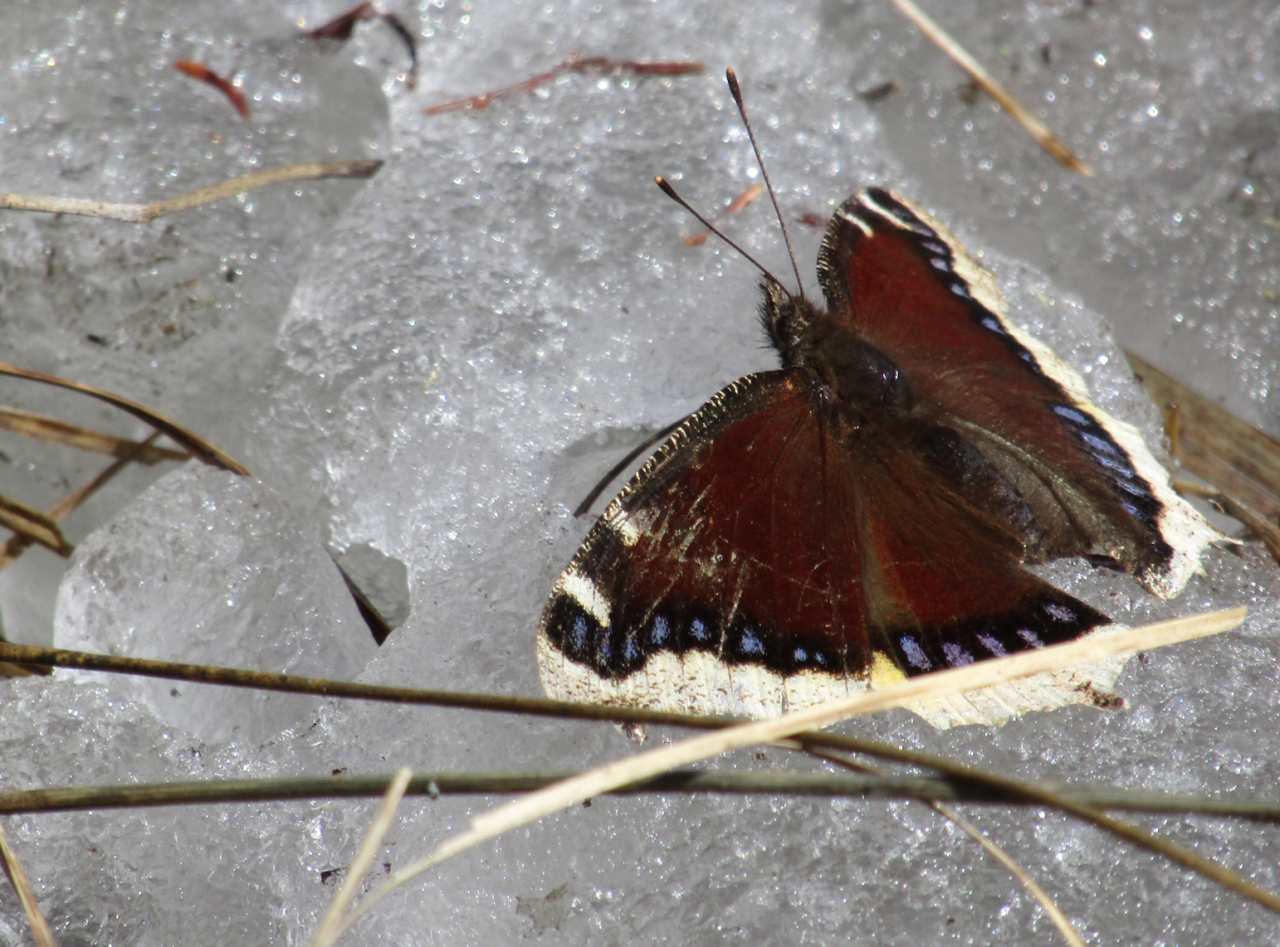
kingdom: Animalia
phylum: Arthropoda
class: Insecta
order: Lepidoptera
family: Nymphalidae
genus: Nymphalis
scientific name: Nymphalis antiopa
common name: Mourning Cloak
